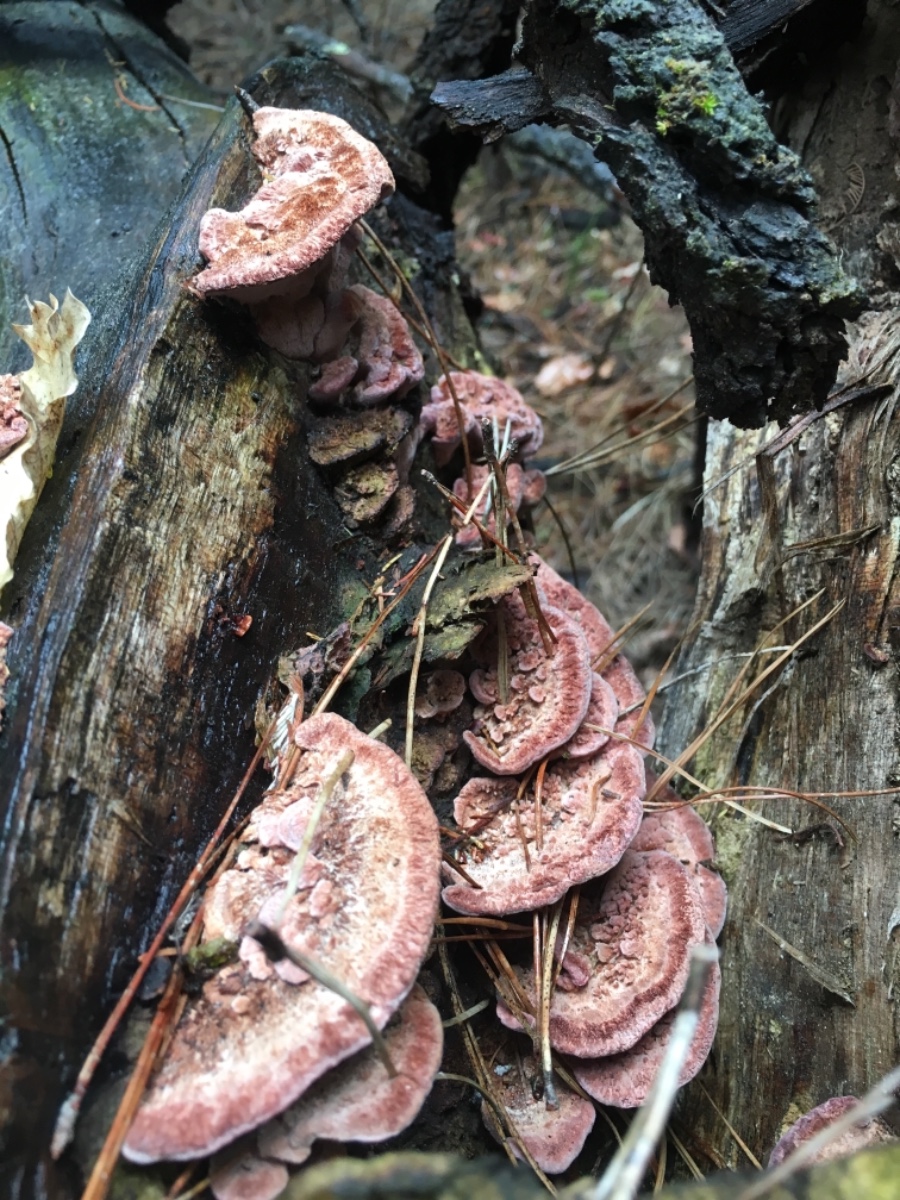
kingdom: Fungi
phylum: Basidiomycota
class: Agaricomycetes
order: Polyporales
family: Fomitopsidaceae
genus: Rhodofomitopsis
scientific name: Rhodofomitopsis lilacinogilva
